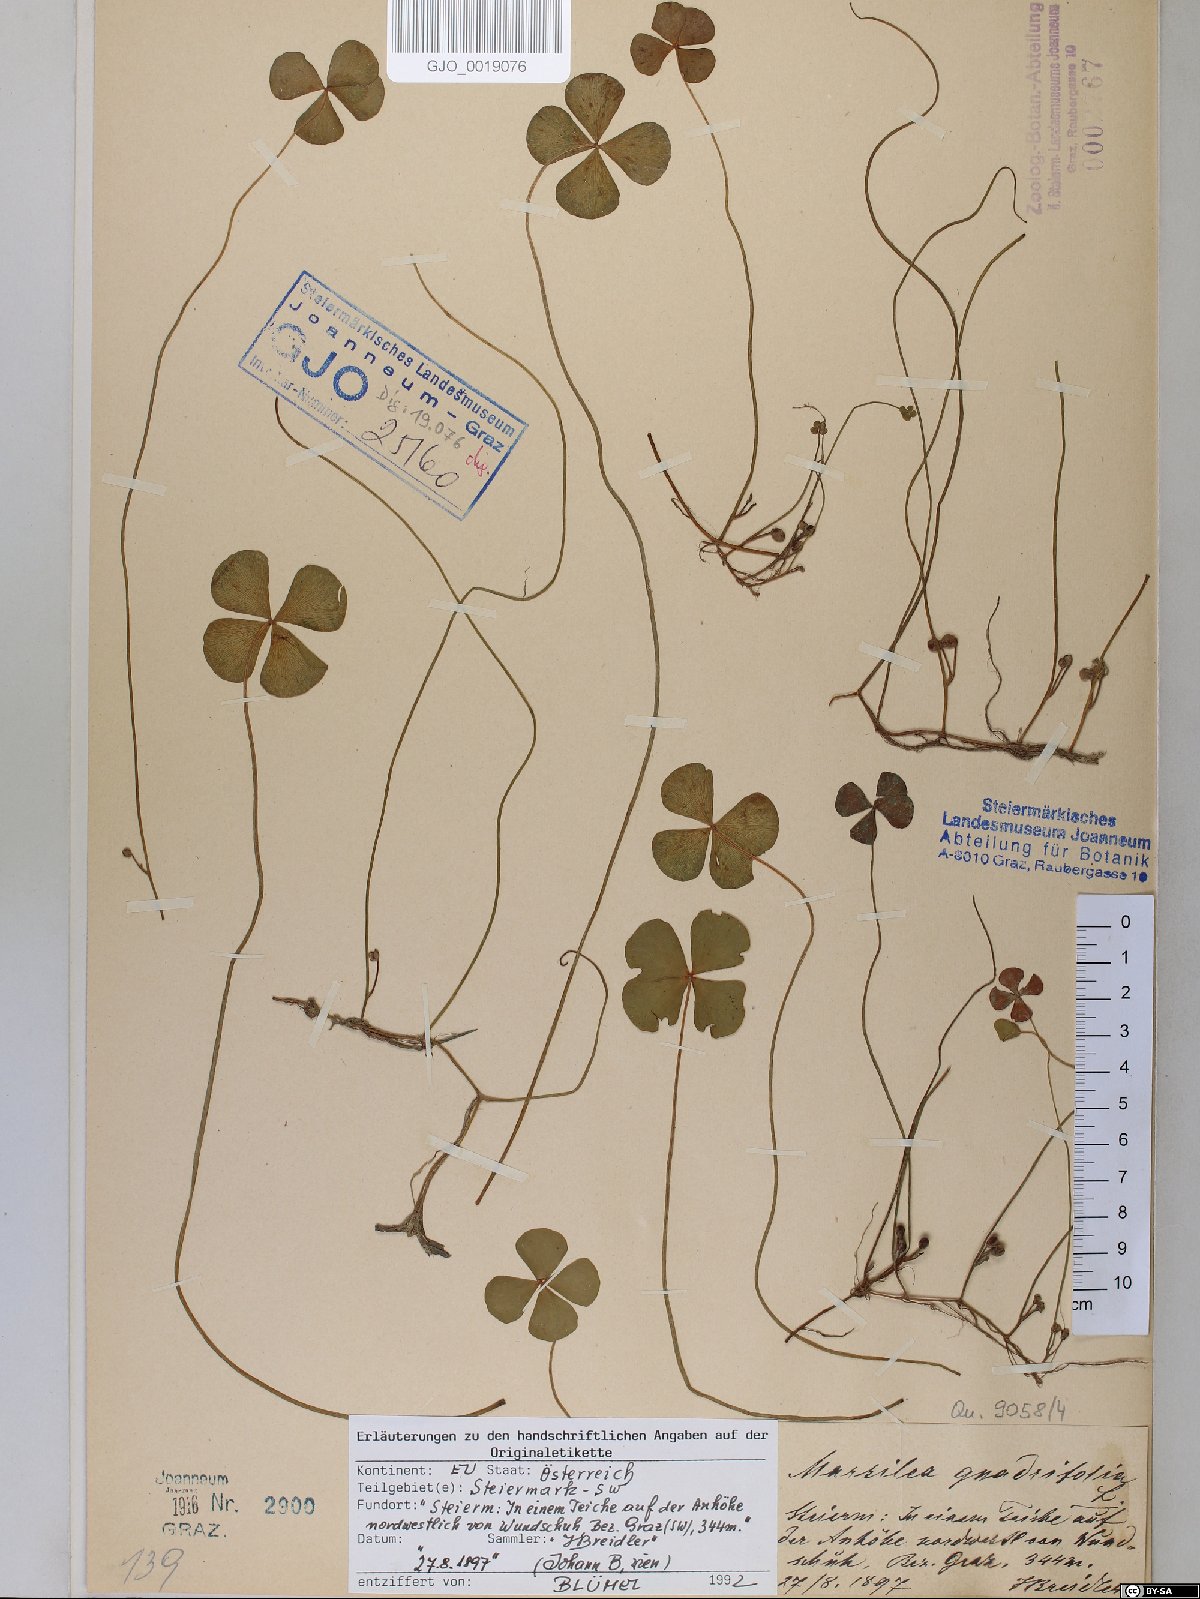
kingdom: Plantae
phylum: Tracheophyta
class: Polypodiopsida
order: Salviniales
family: Marsileaceae
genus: Marsilea
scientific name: Marsilea quadrifolia
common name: Water shamrock
